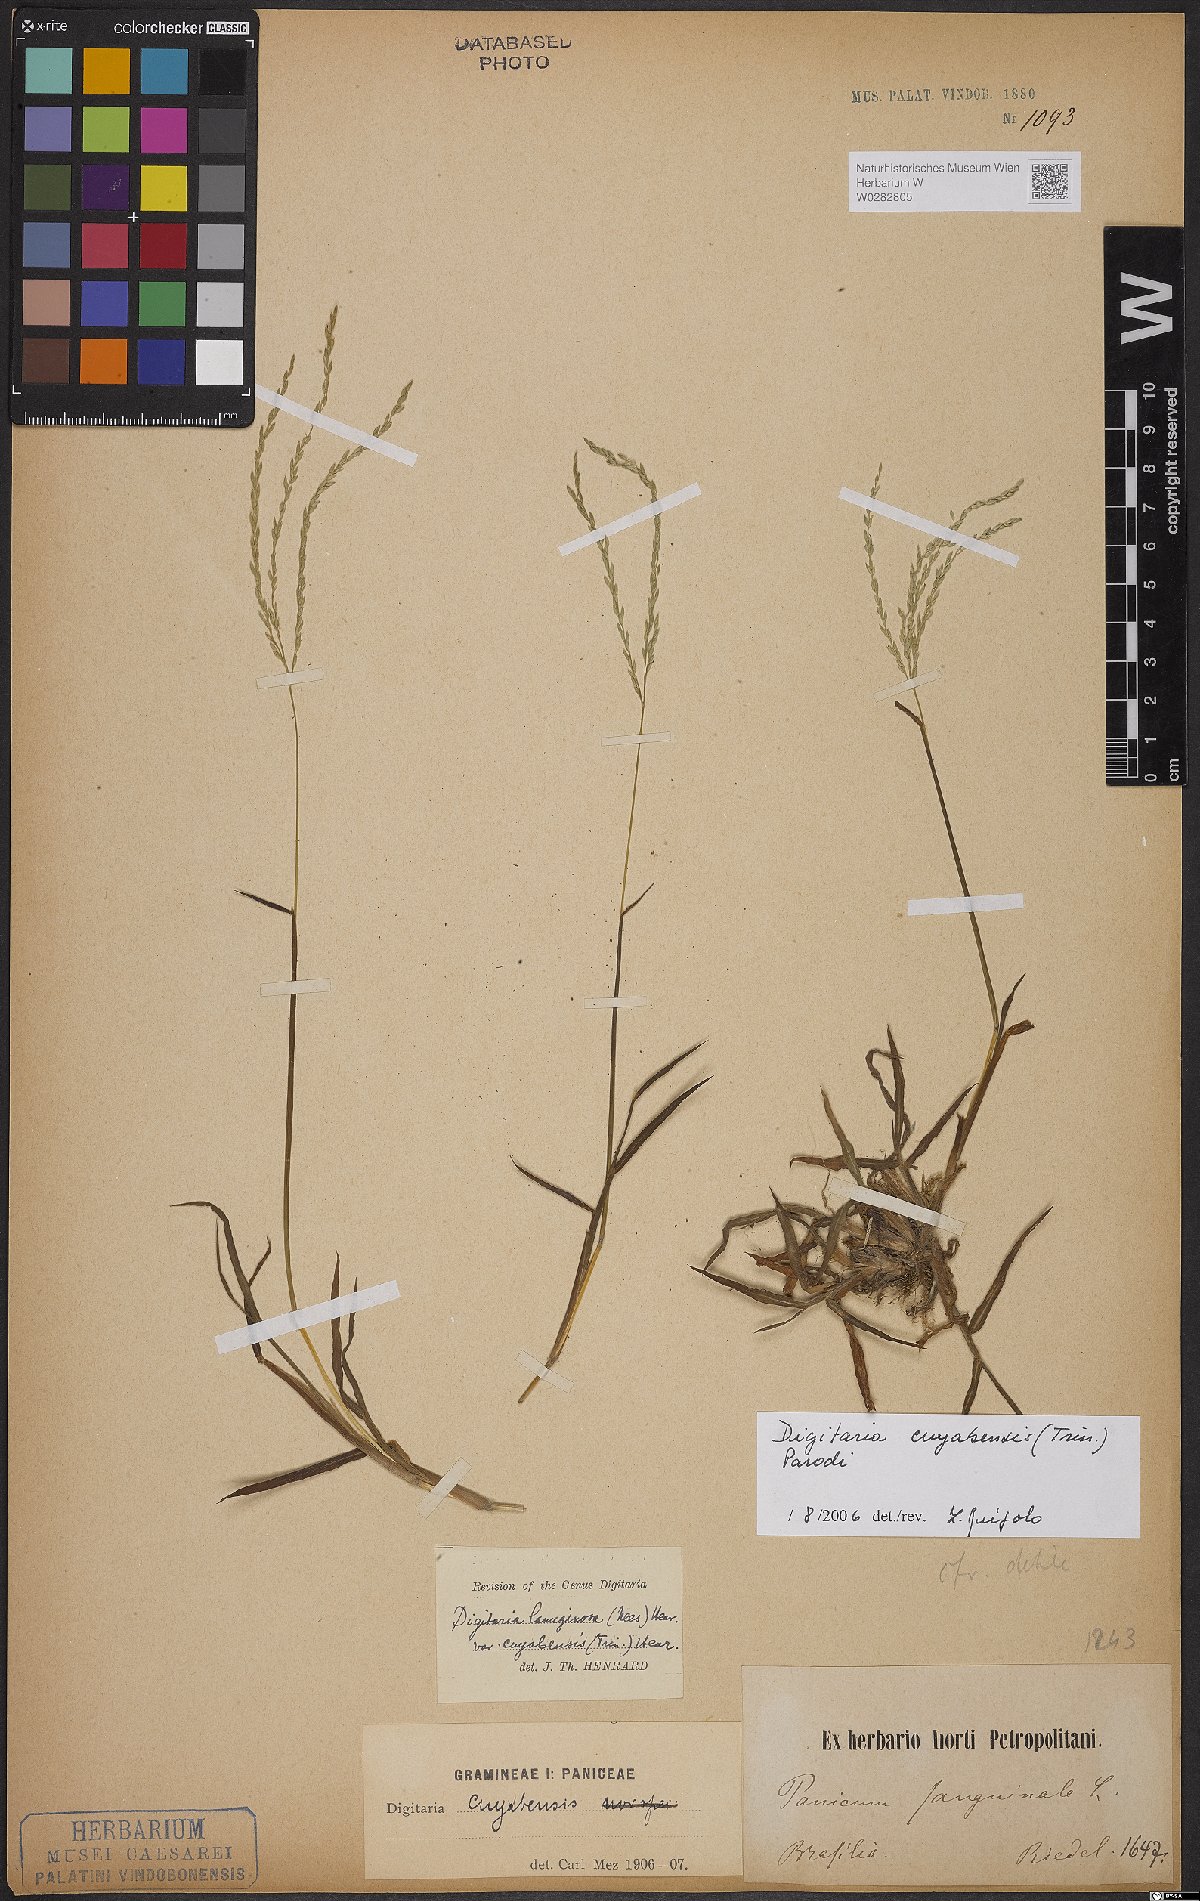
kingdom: Plantae
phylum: Tracheophyta
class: Liliopsida
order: Poales
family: Poaceae
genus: Digitaria
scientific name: Digitaria cuyabensis
